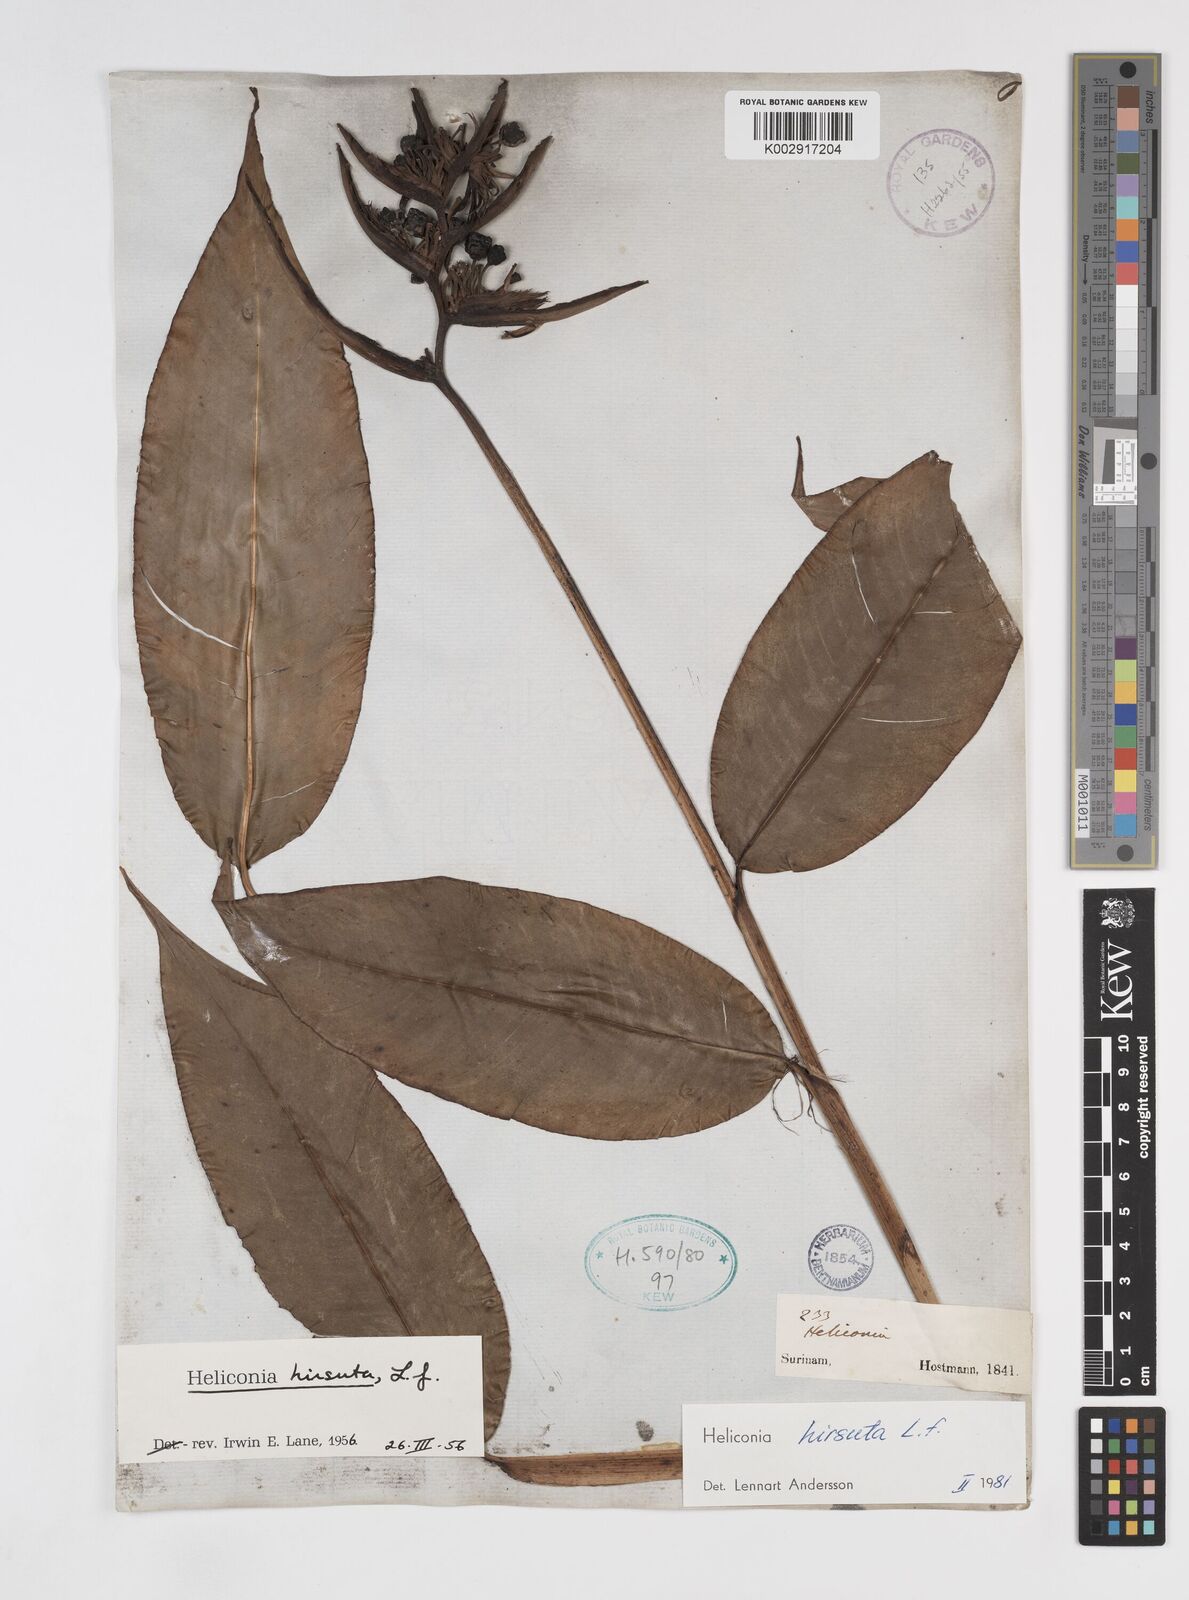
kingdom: Plantae
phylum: Tracheophyta
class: Liliopsida
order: Zingiberales
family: Heliconiaceae
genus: Heliconia
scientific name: Heliconia hirsuta
